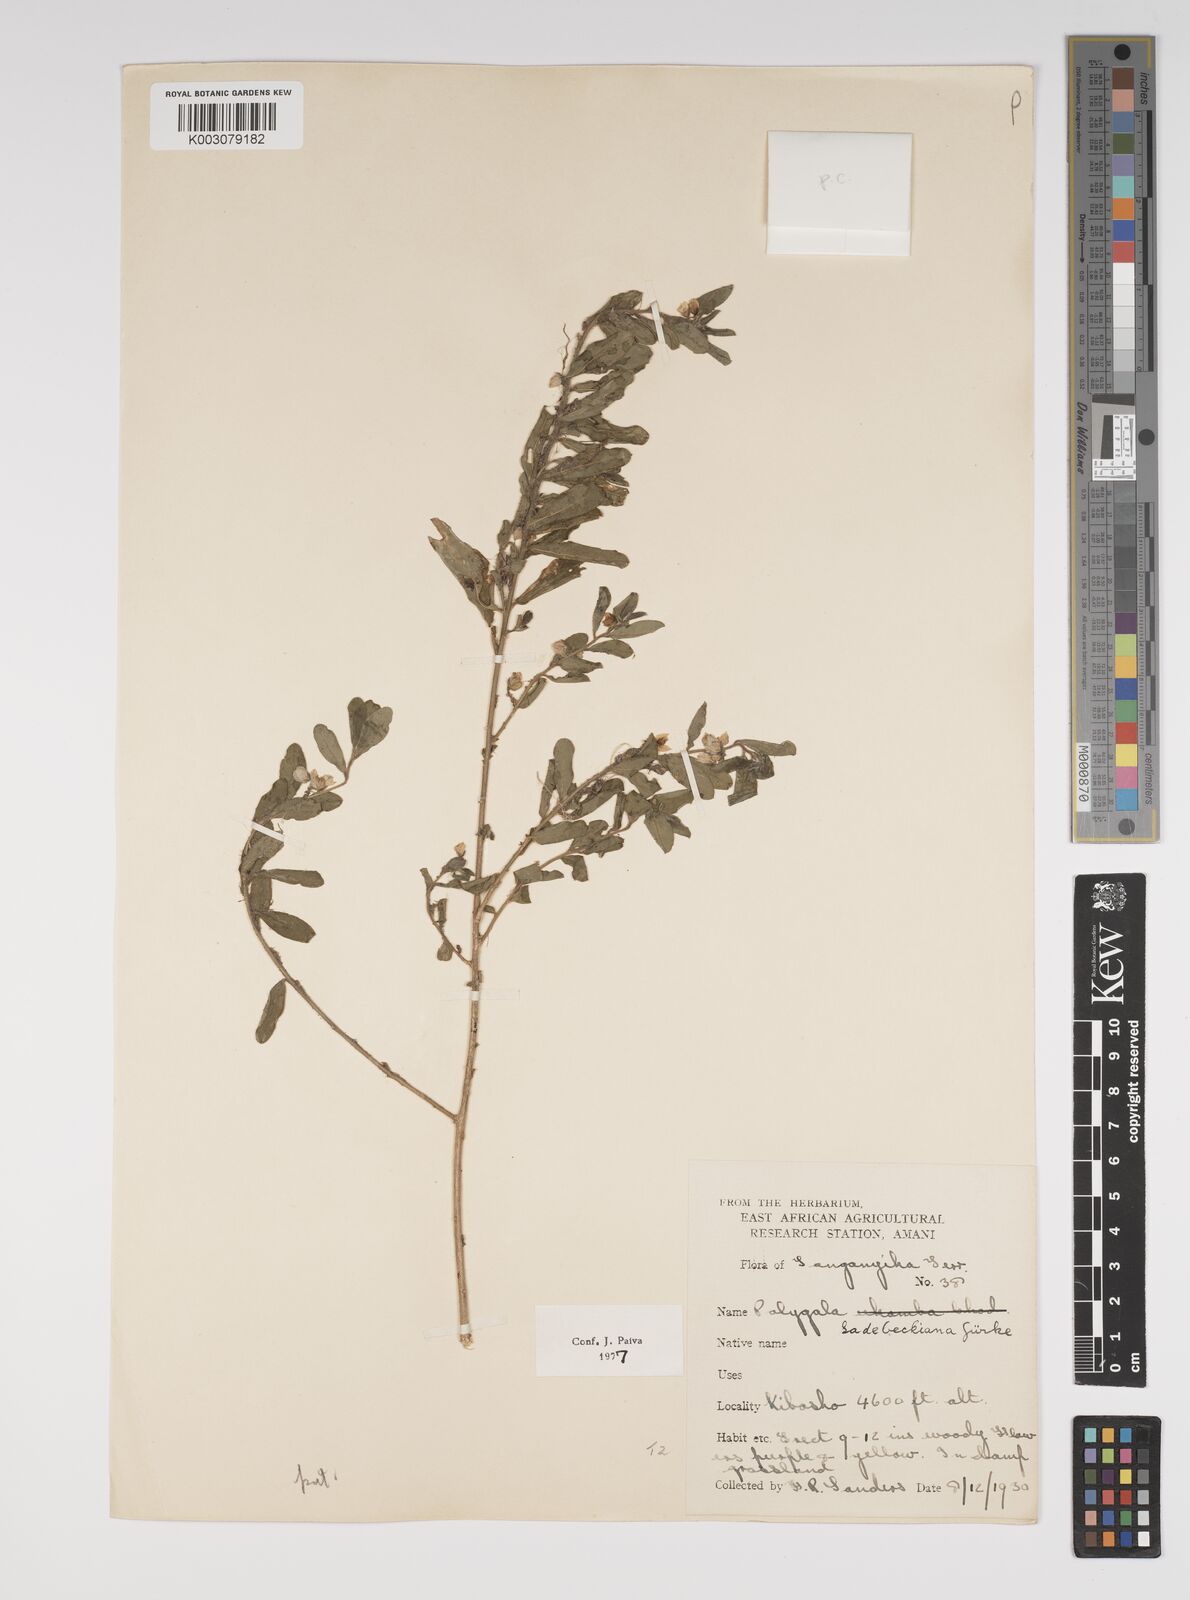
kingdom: Plantae
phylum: Tracheophyta
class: Magnoliopsida
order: Fabales
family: Polygalaceae
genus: Polygala
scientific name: Polygala sadebeckiana
